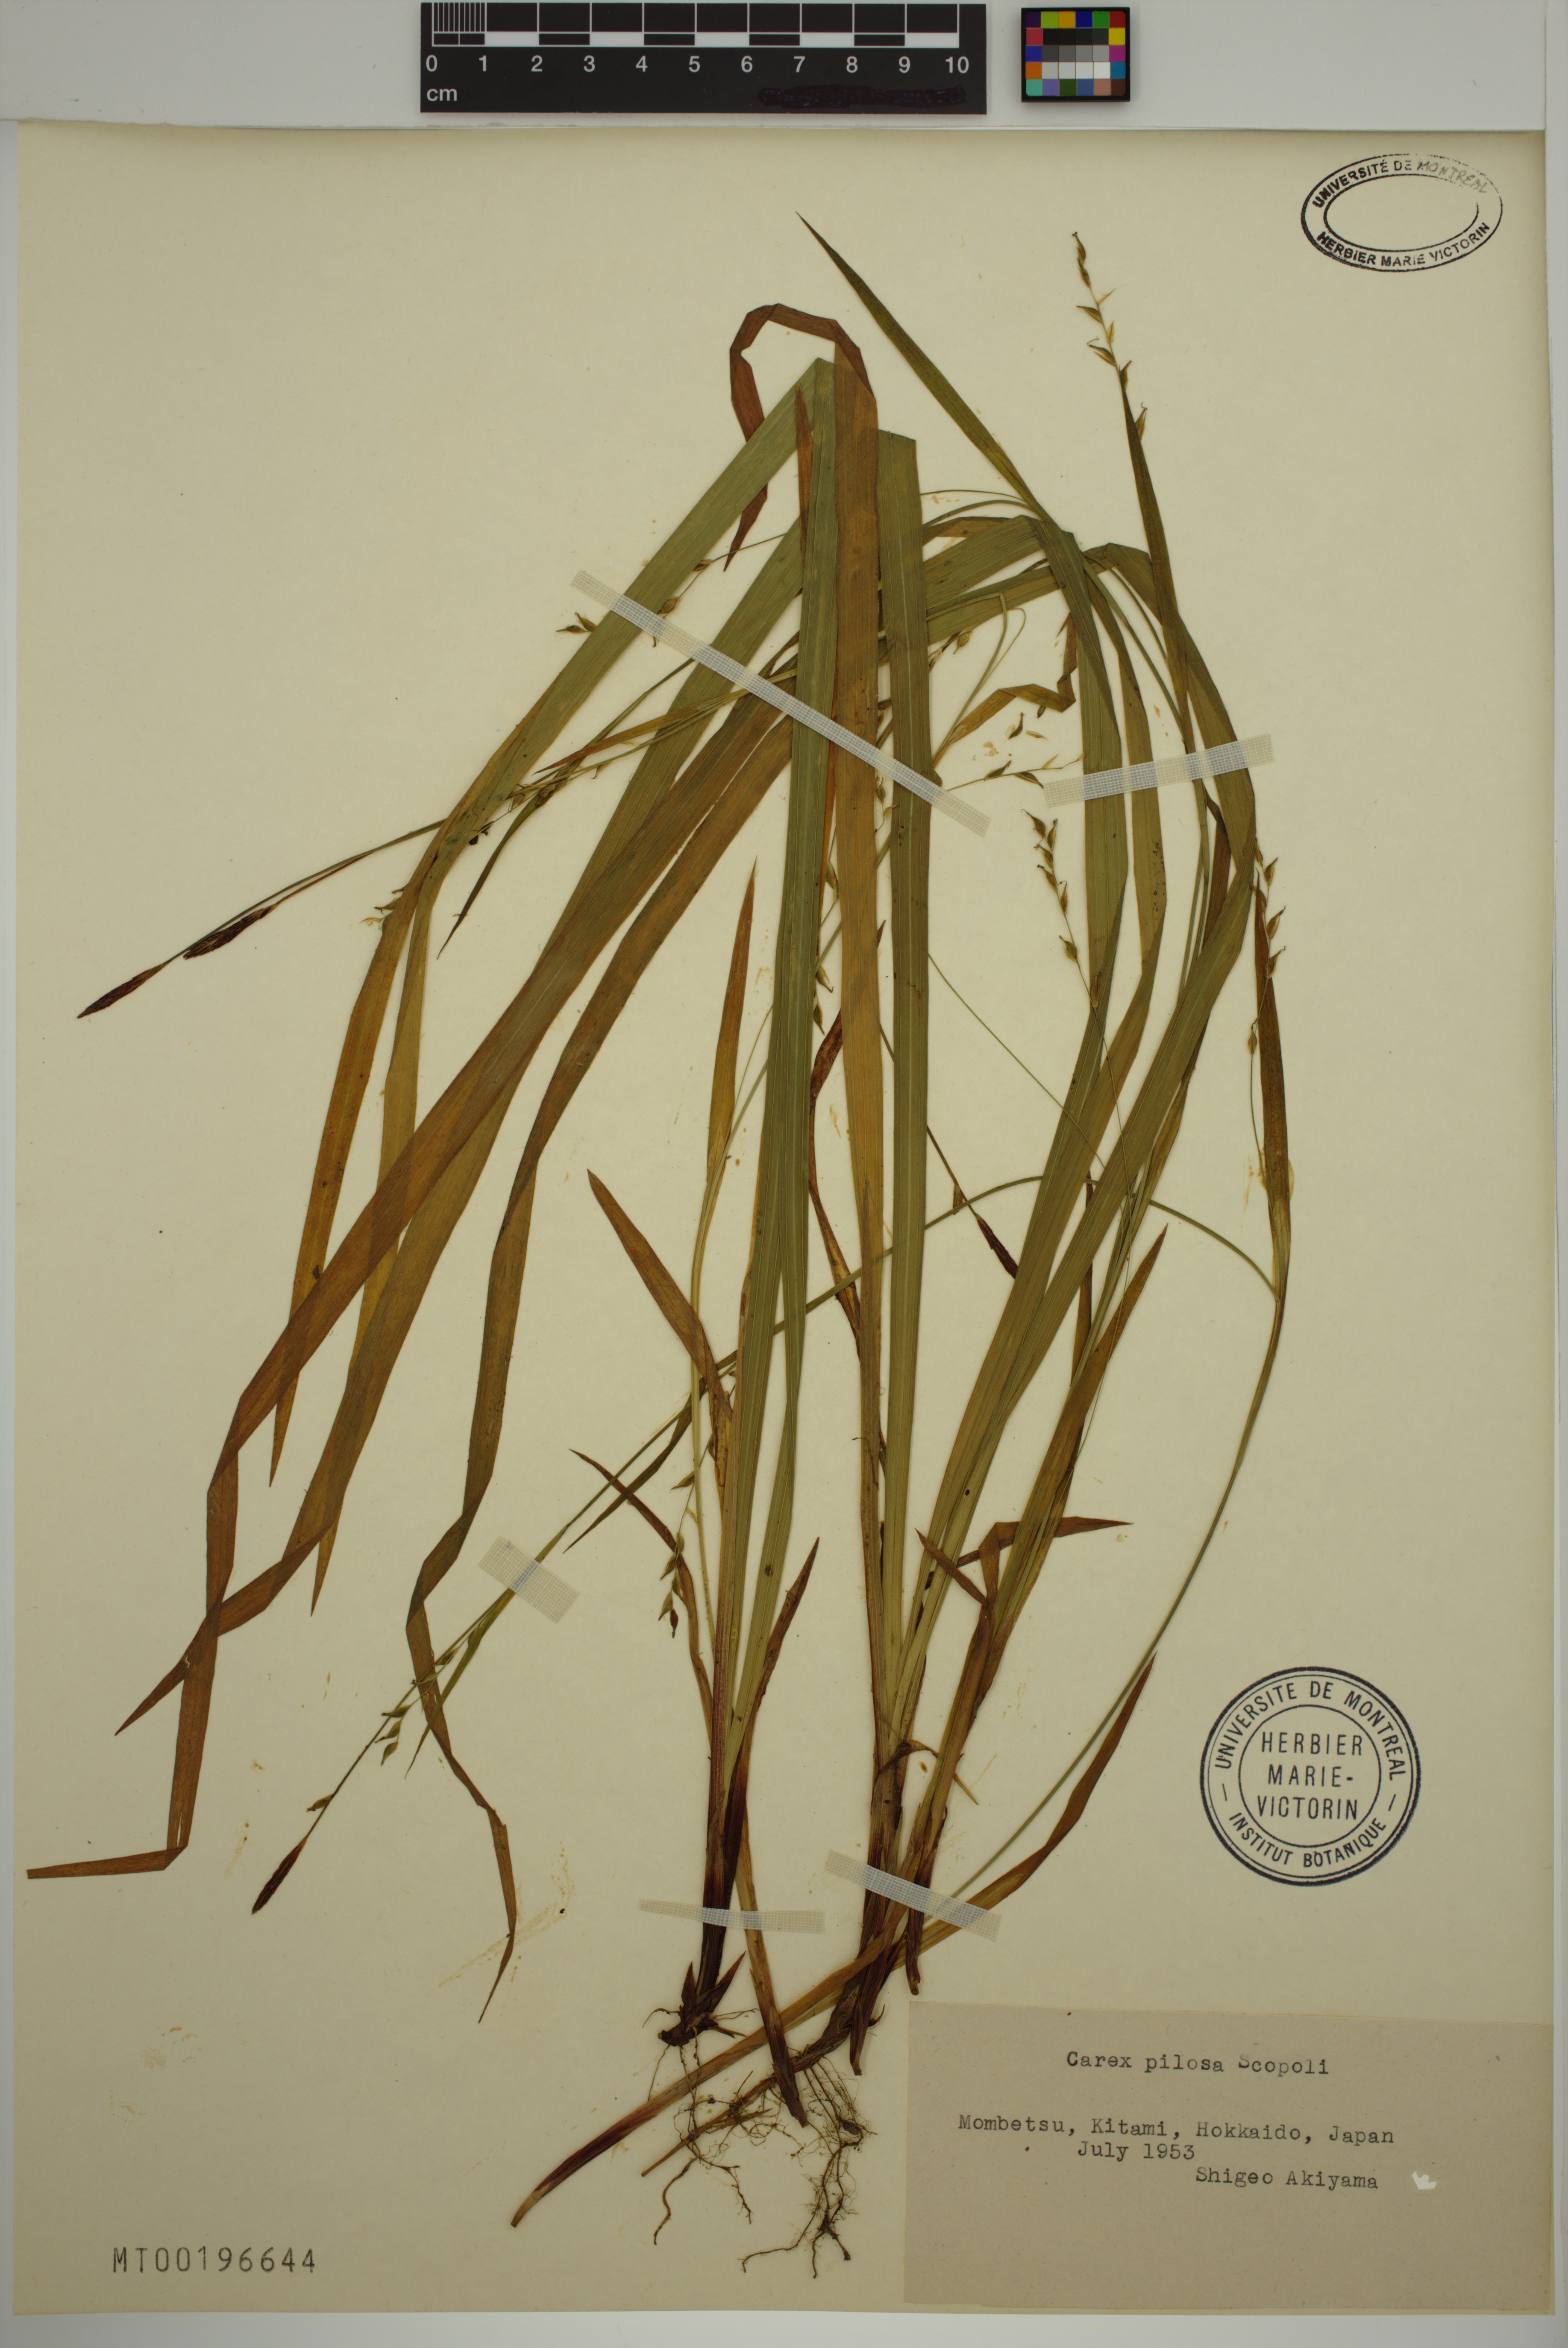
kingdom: Plantae
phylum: Tracheophyta
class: Liliopsida
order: Poales
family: Cyperaceae
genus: Carex
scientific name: Carex pilosa
